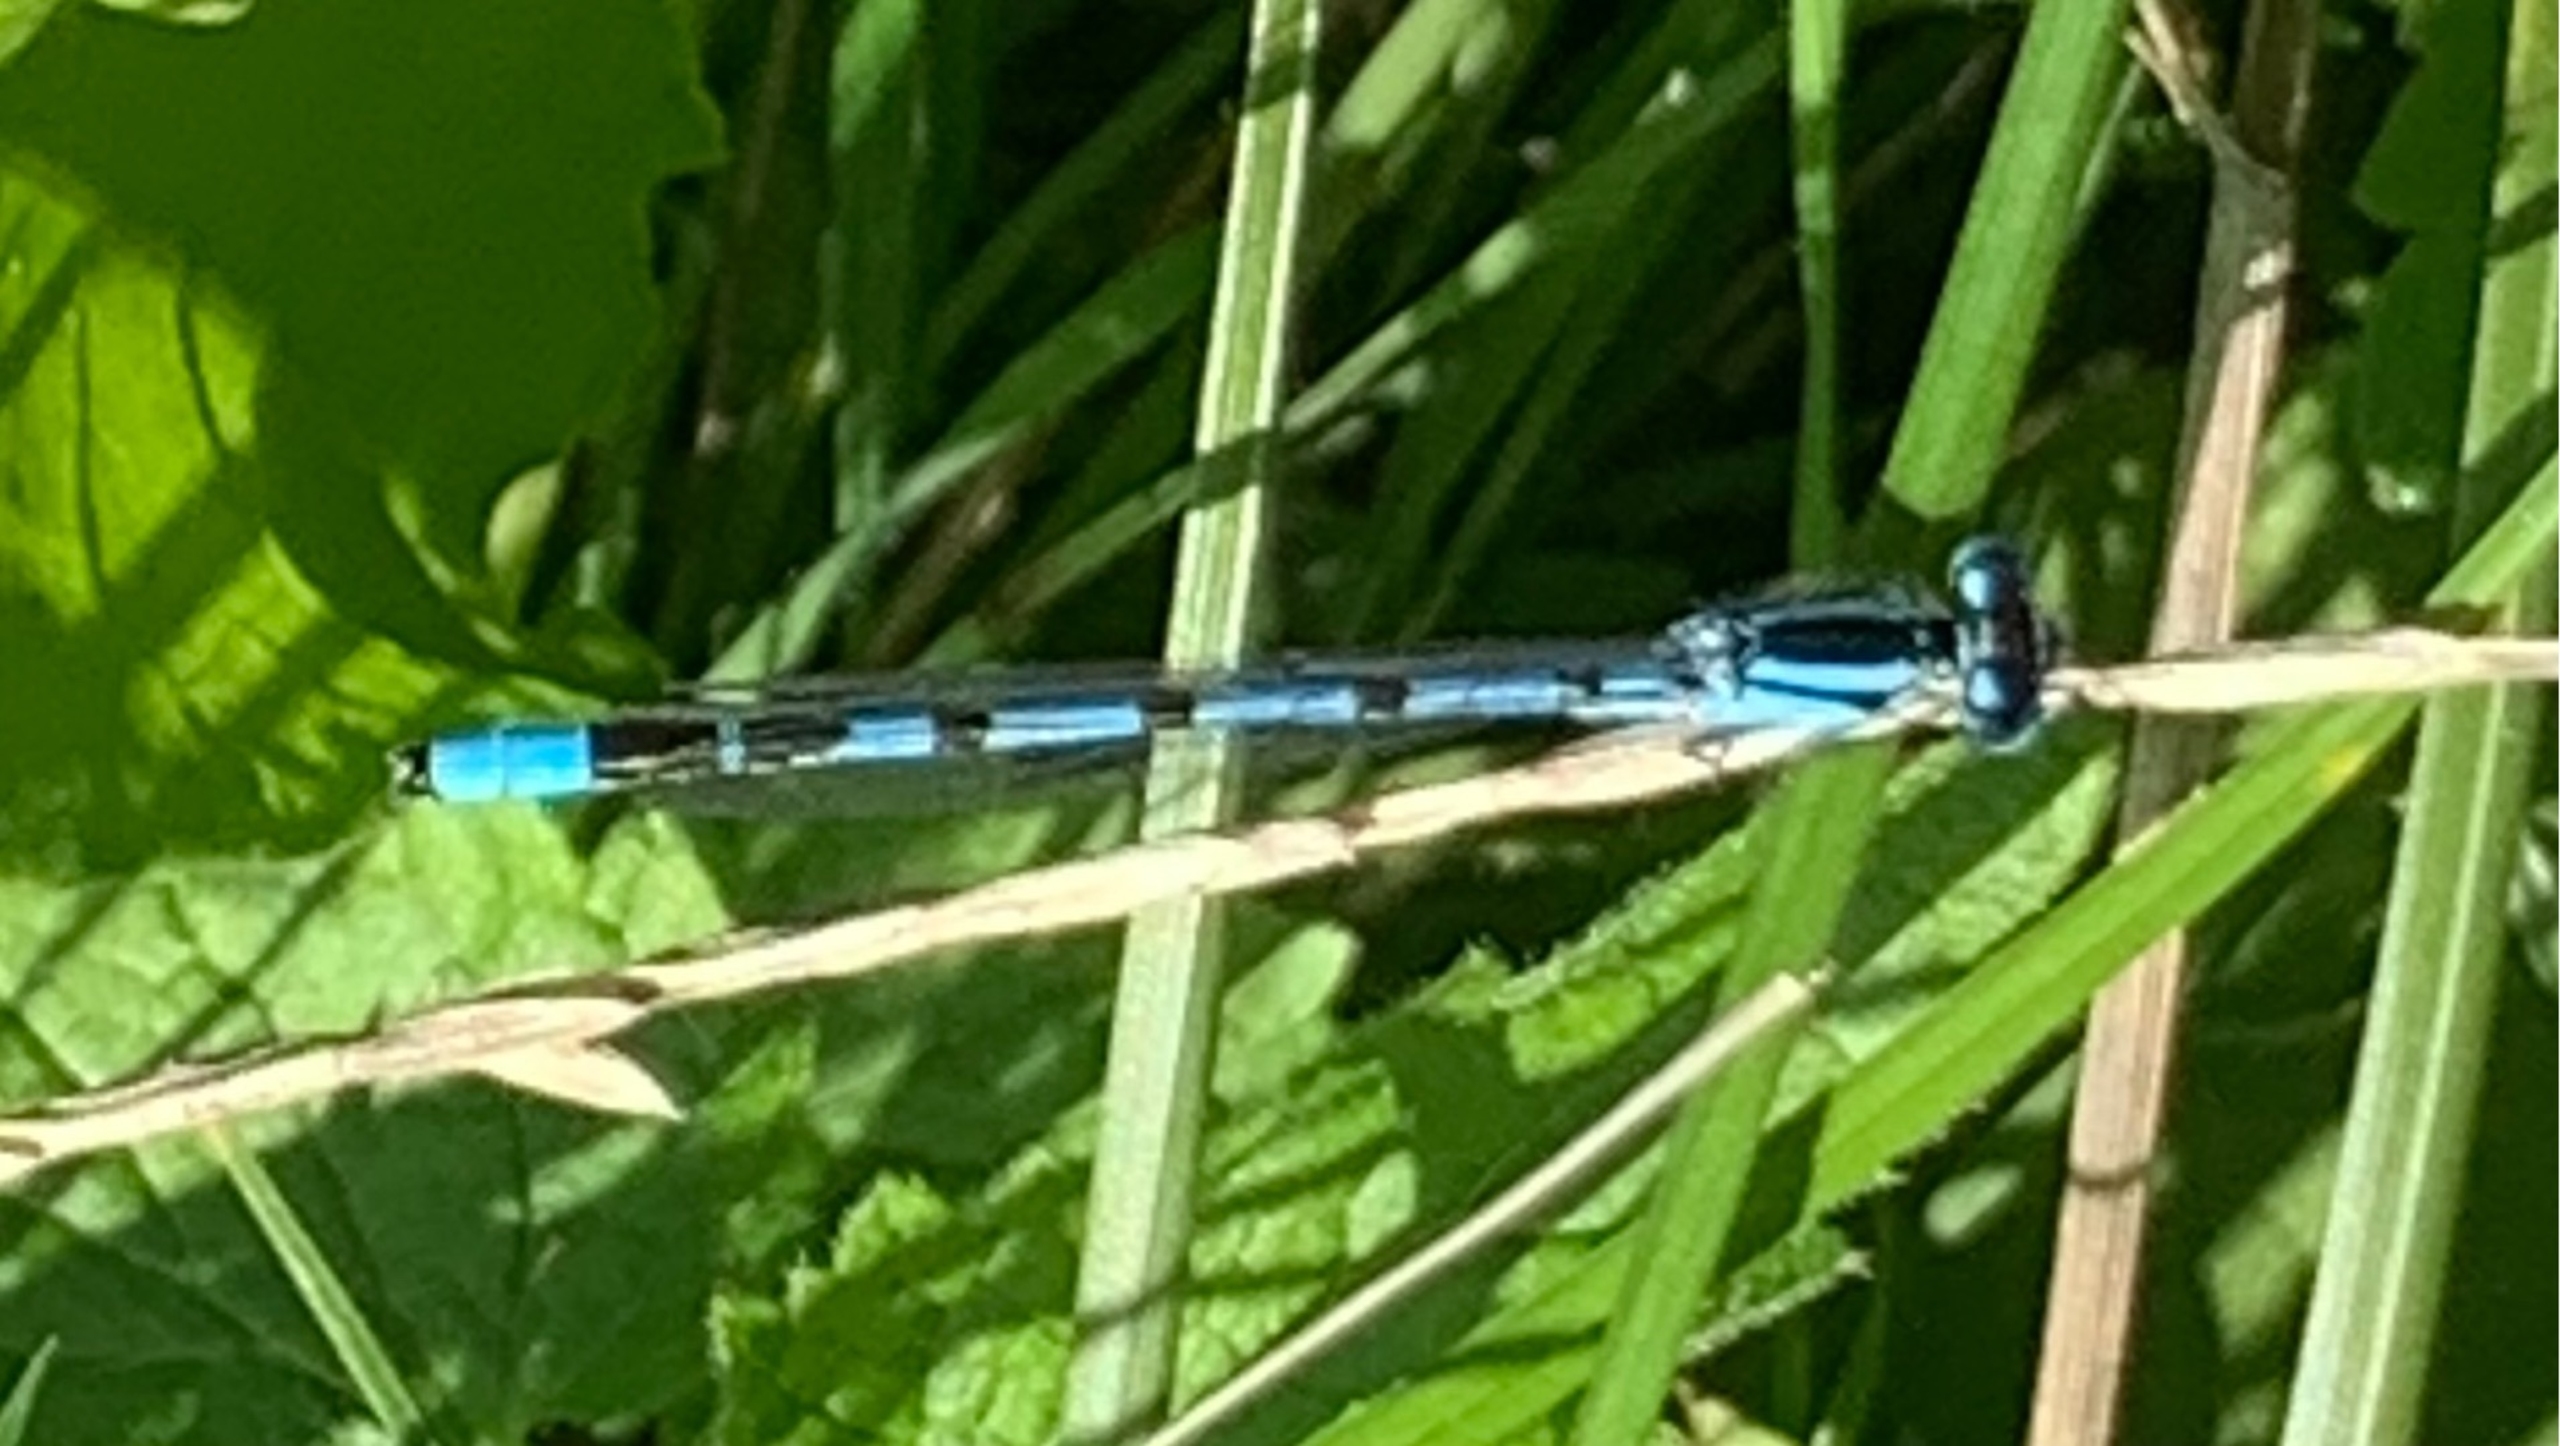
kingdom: Animalia
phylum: Arthropoda
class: Insecta
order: Odonata
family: Coenagrionidae
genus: Enallagma
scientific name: Enallagma cyathigerum
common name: Almindelig vandnymfe
